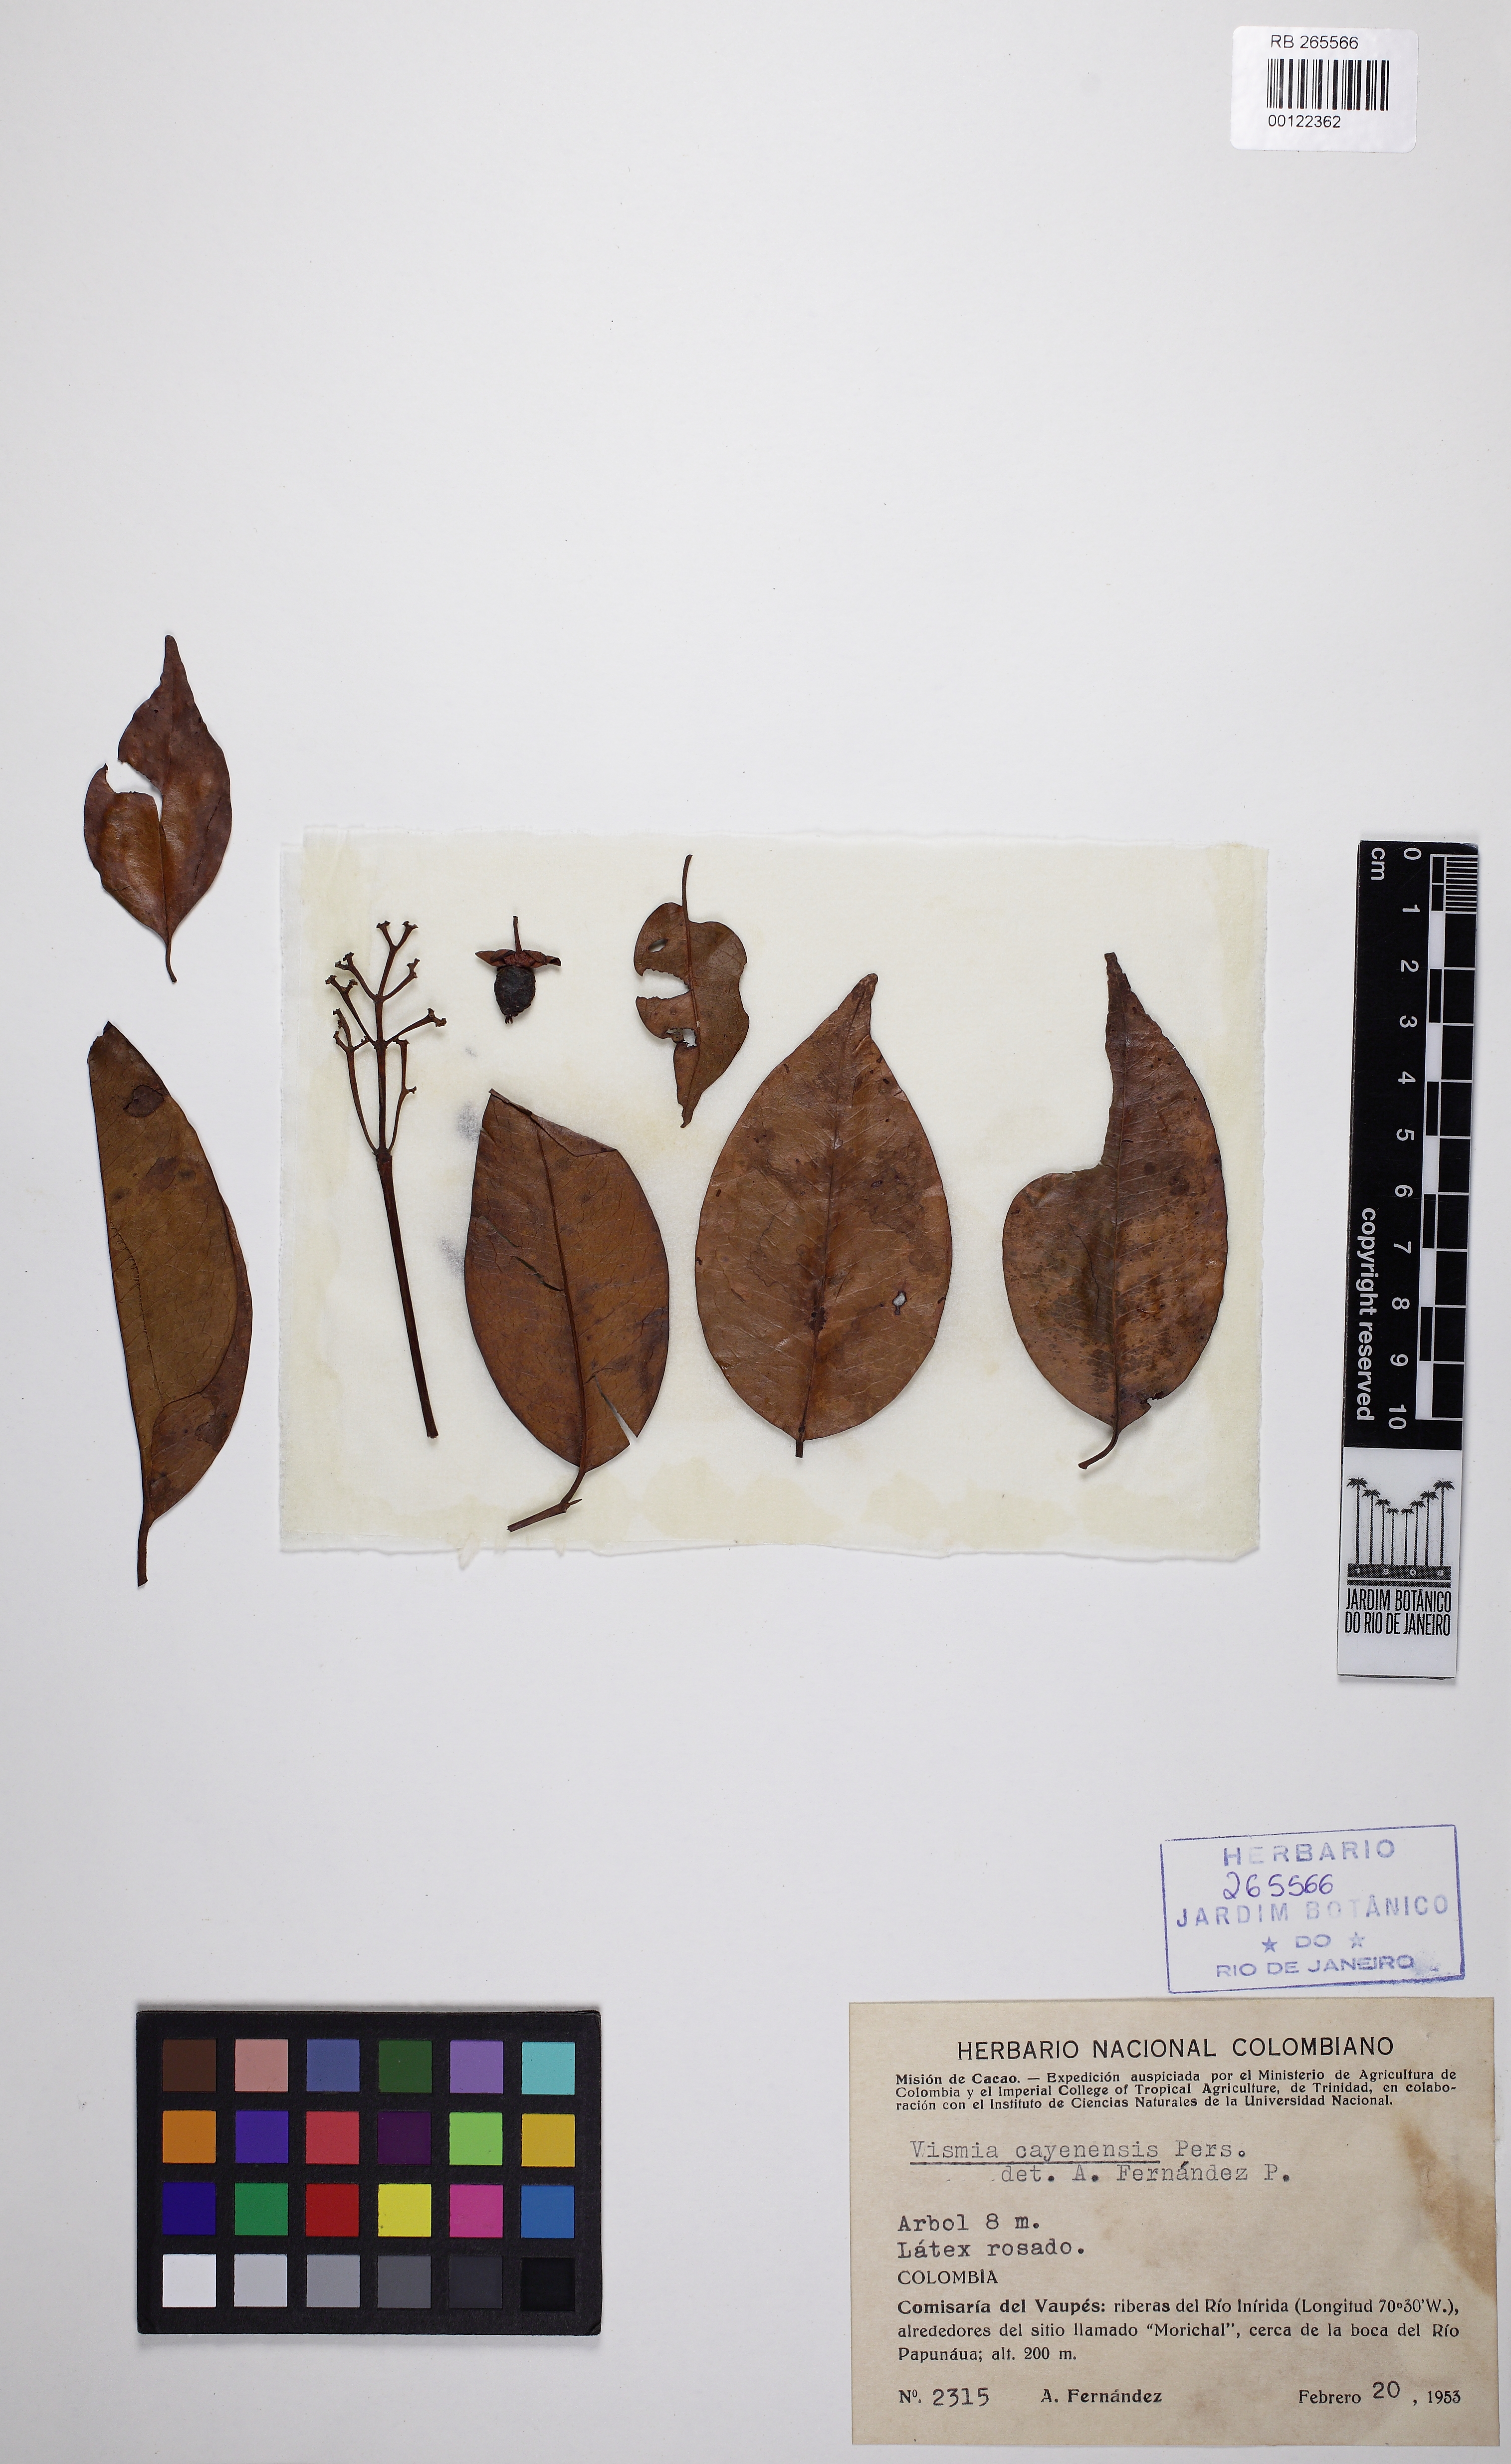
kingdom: Plantae
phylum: Tracheophyta
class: Magnoliopsida
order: Malpighiales
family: Hypericaceae
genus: Vismia
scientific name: Vismia cayennensis
